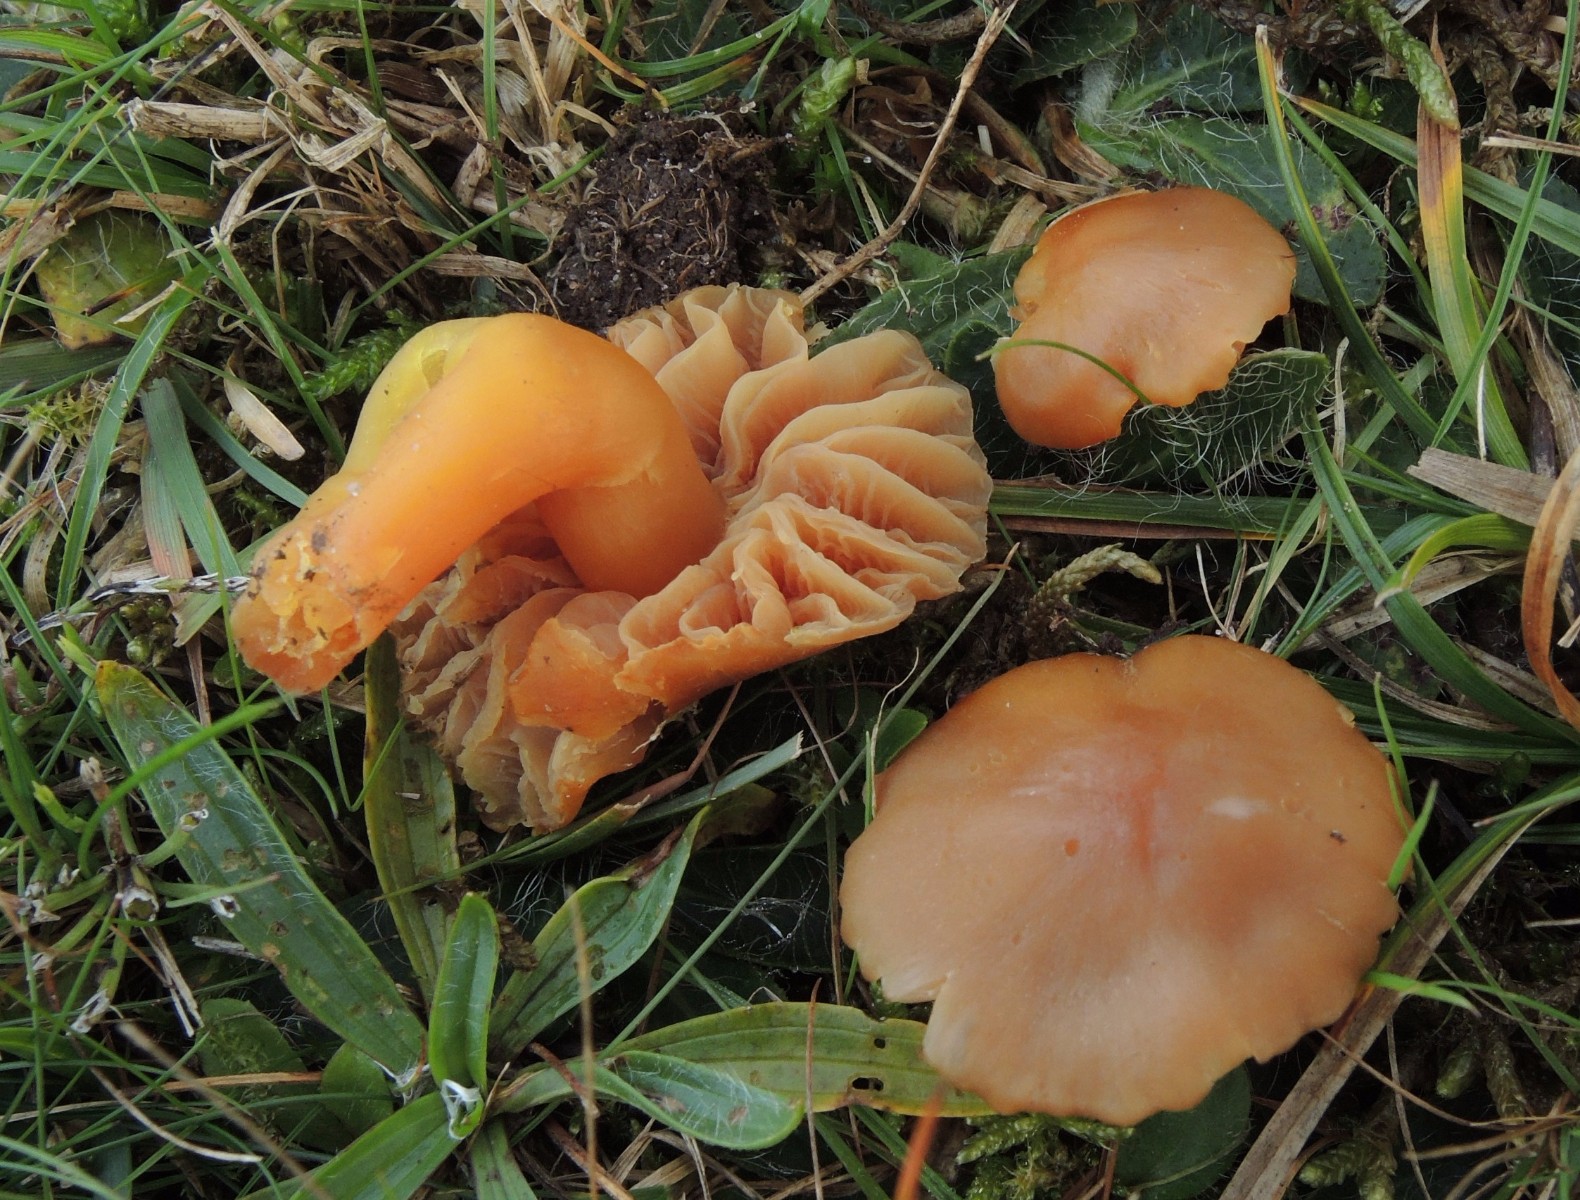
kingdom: Fungi
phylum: Basidiomycota
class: Agaricomycetes
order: Agaricales
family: Hygrophoraceae
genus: Hygrocybe
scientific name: Hygrocybe quieta
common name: tæge-vokshat
